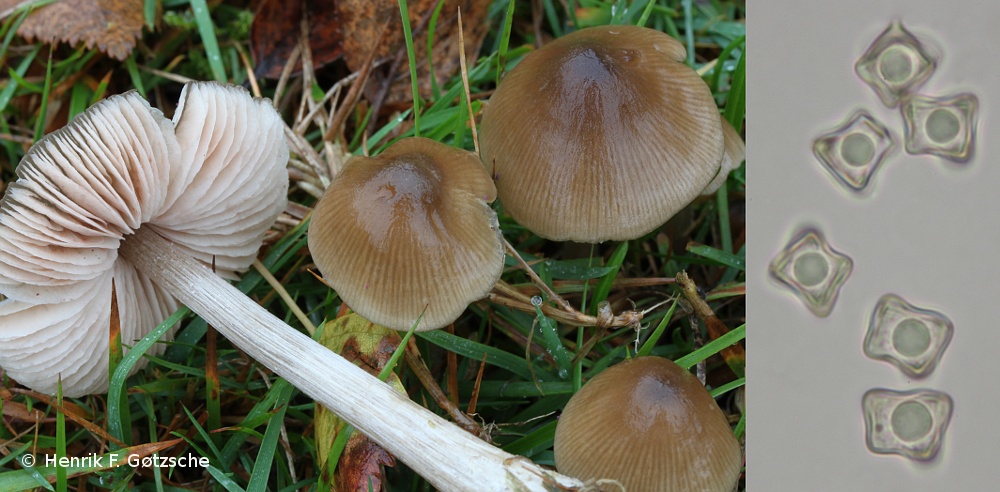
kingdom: Fungi
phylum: Basidiomycota
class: Agaricomycetes
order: Agaricales
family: Entolomataceae
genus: Entoloma
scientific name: Entoloma conferendum
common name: stjernesporet rødblad
